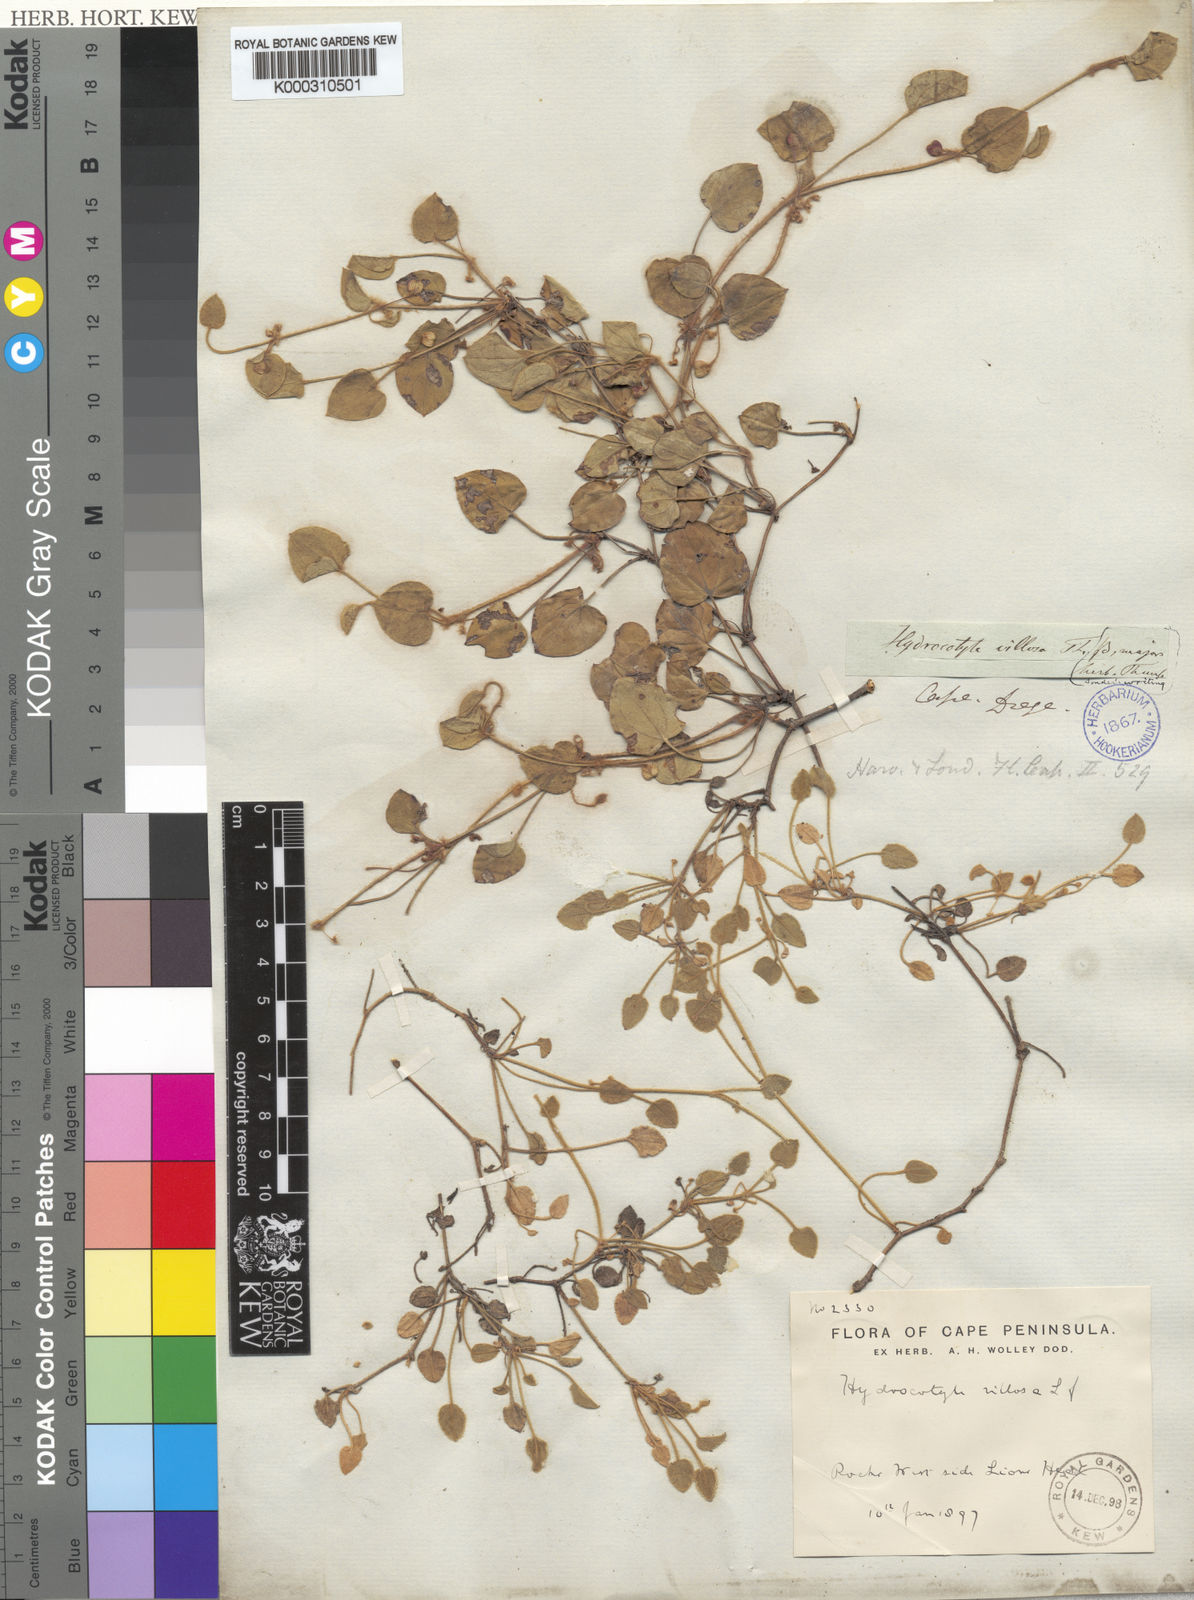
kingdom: Plantae
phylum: Tracheophyta
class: Magnoliopsida
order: Apiales
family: Araliaceae
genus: Hydrocotyle
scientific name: Hydrocotyle
